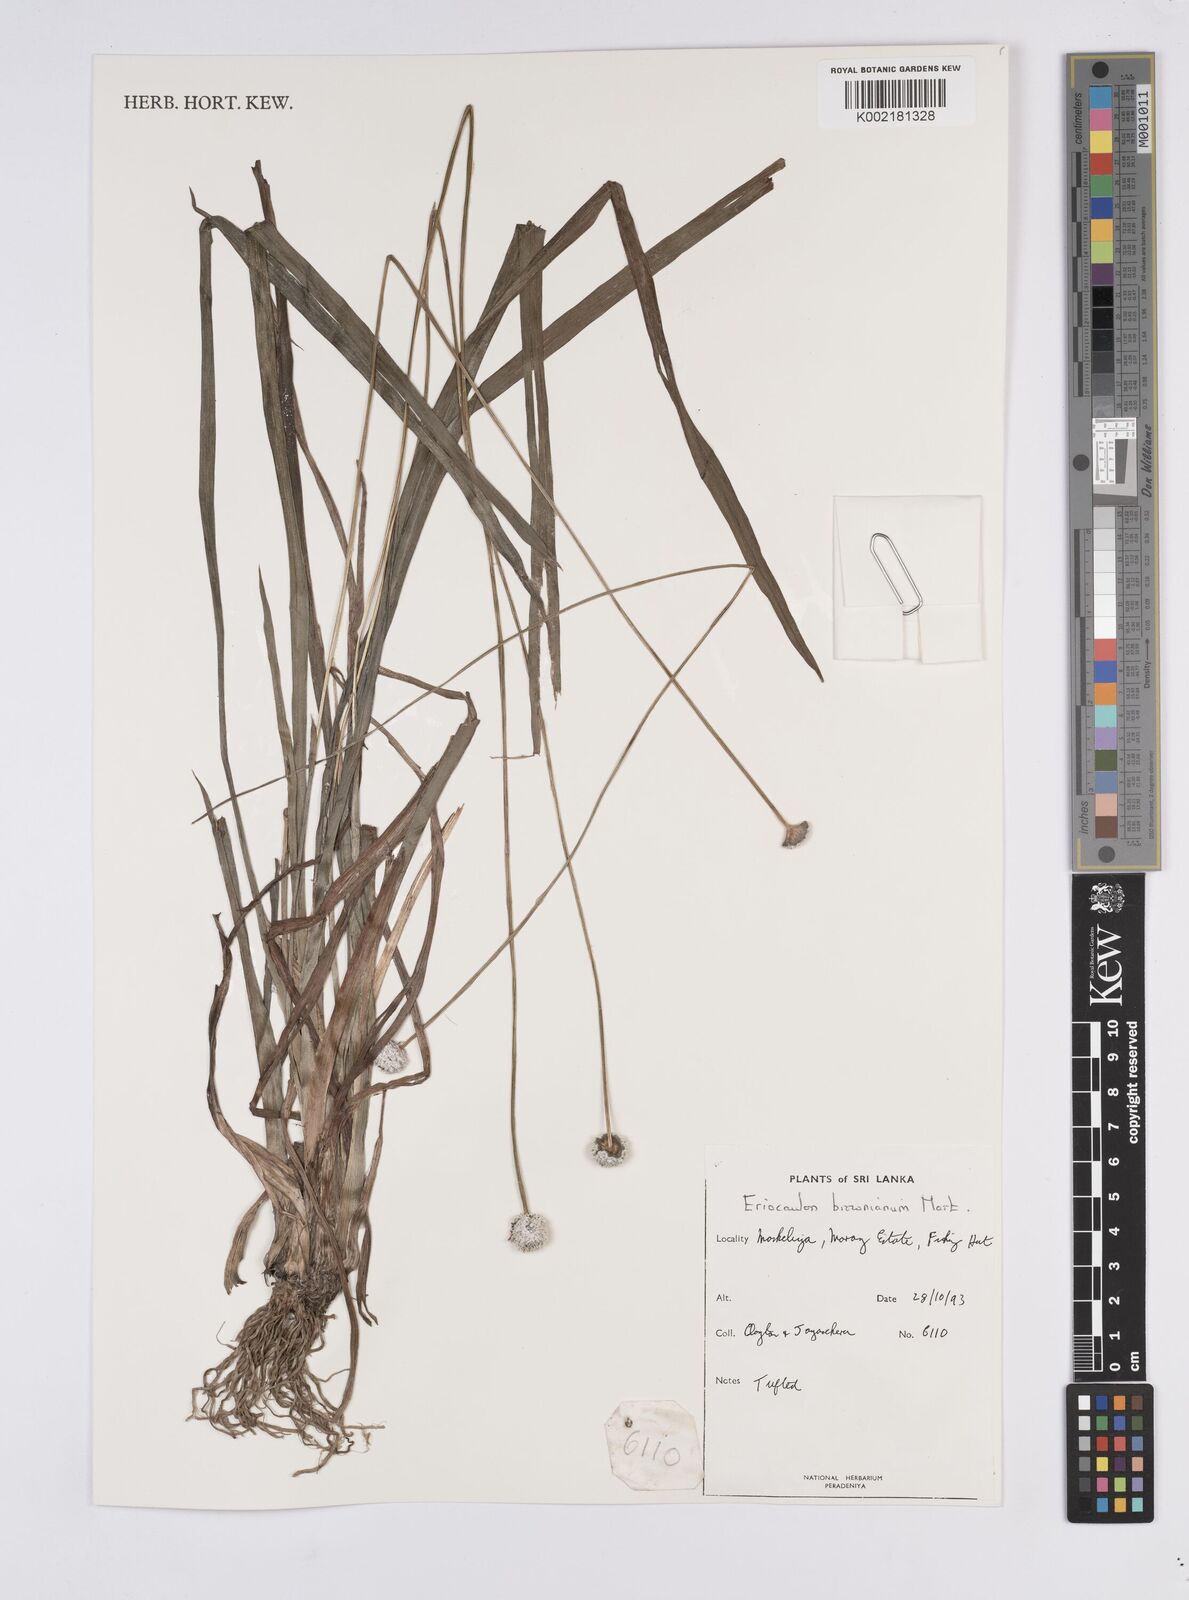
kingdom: Plantae
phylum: Tracheophyta
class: Liliopsida
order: Poales
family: Eriocaulaceae
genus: Eriocaulon
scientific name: Eriocaulon brownianum
